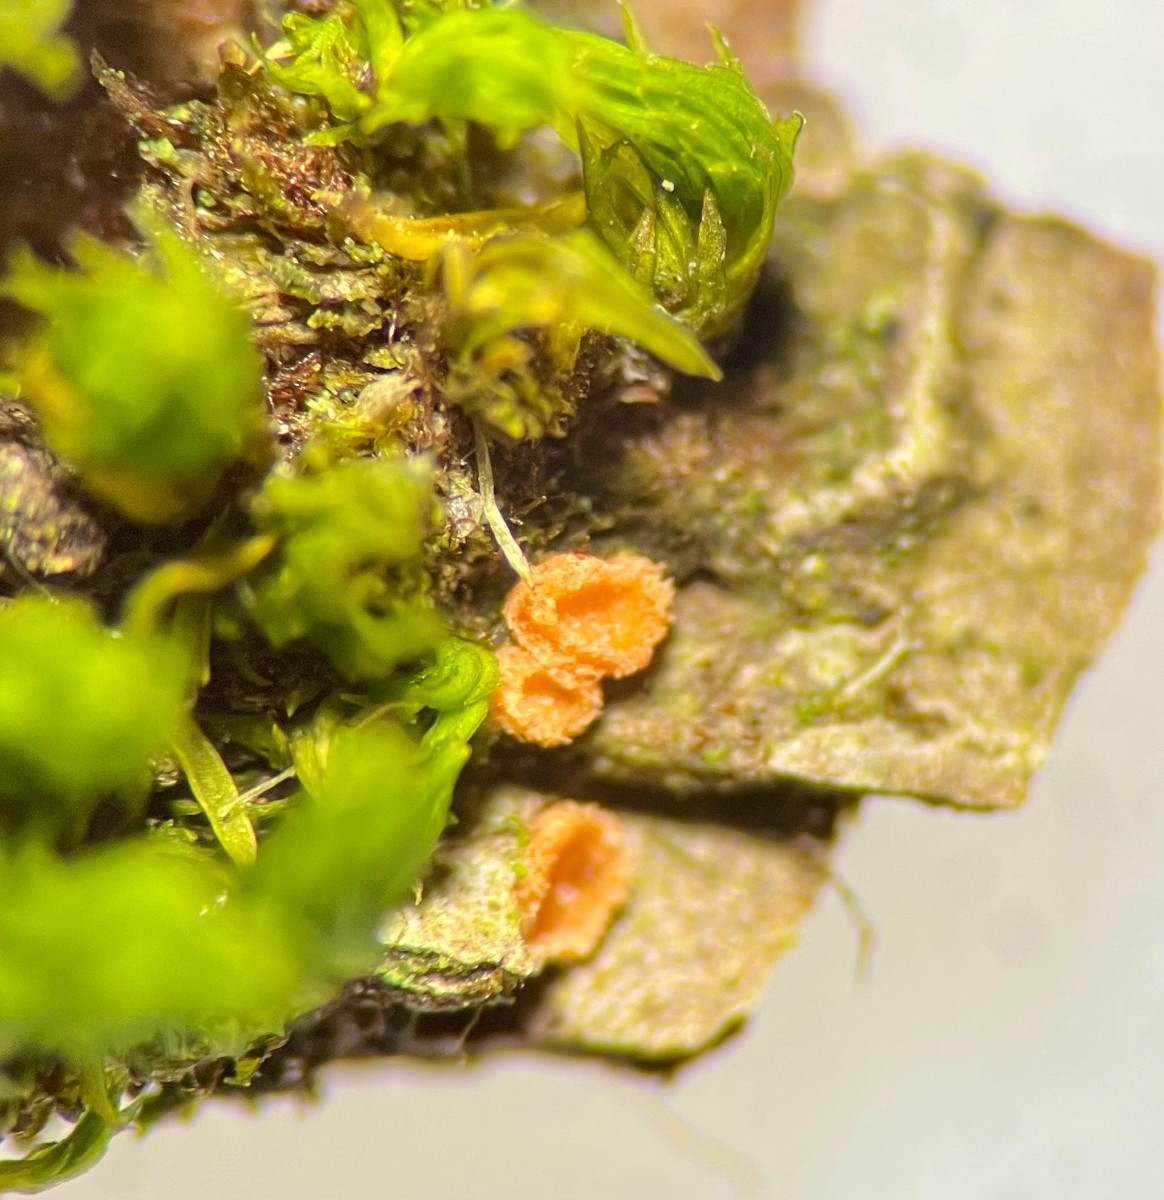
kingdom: Fungi
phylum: Ascomycota
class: Pezizomycetes
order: Pezizales
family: Pyronemataceae
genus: Octospora
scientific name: Octospora affinis
